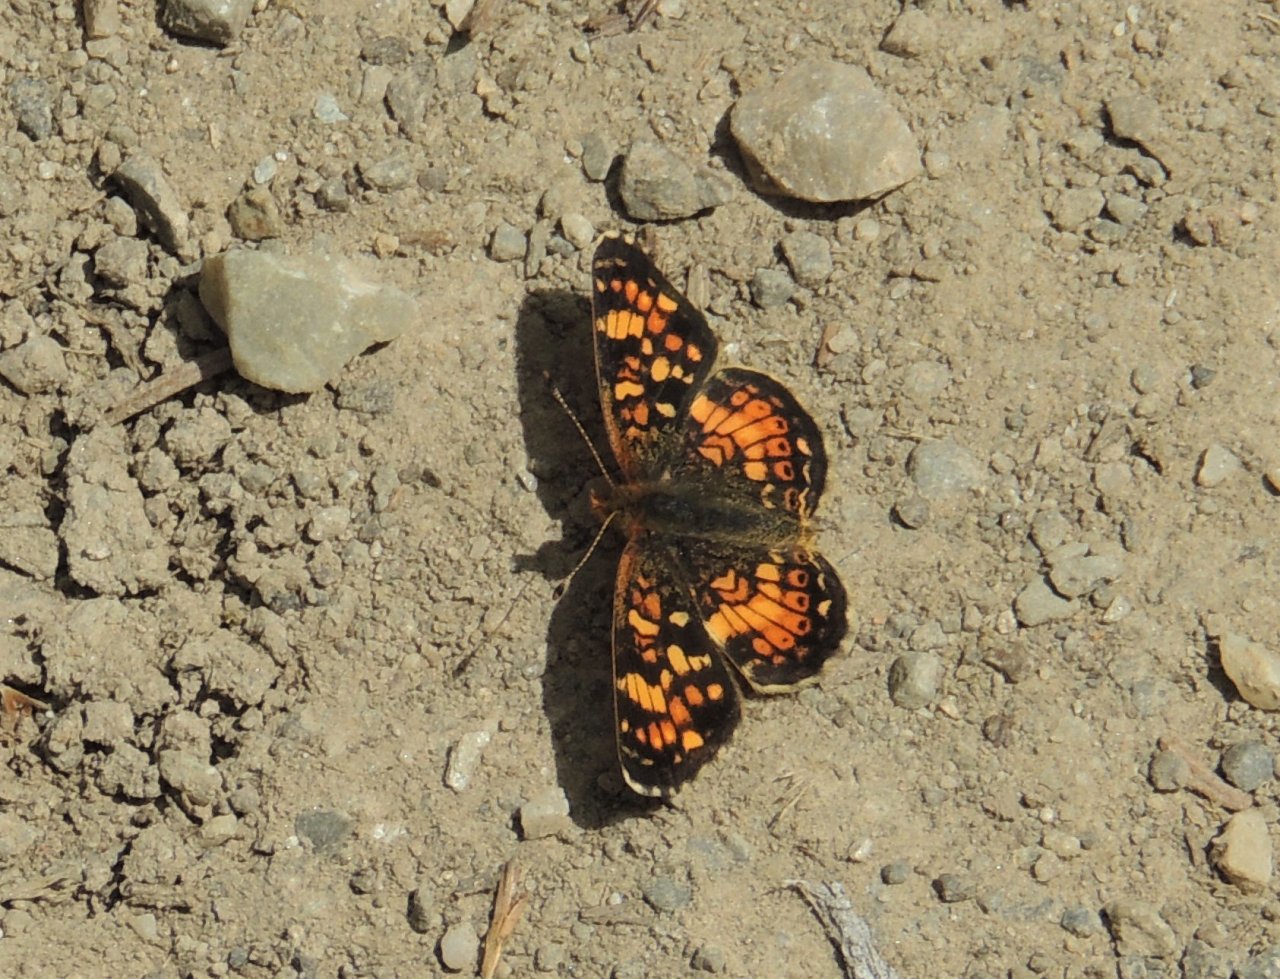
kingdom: Animalia
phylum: Arthropoda
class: Insecta
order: Lepidoptera
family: Nymphalidae
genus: Phyciodes
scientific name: Phyciodes tharos
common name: Field Crescent
